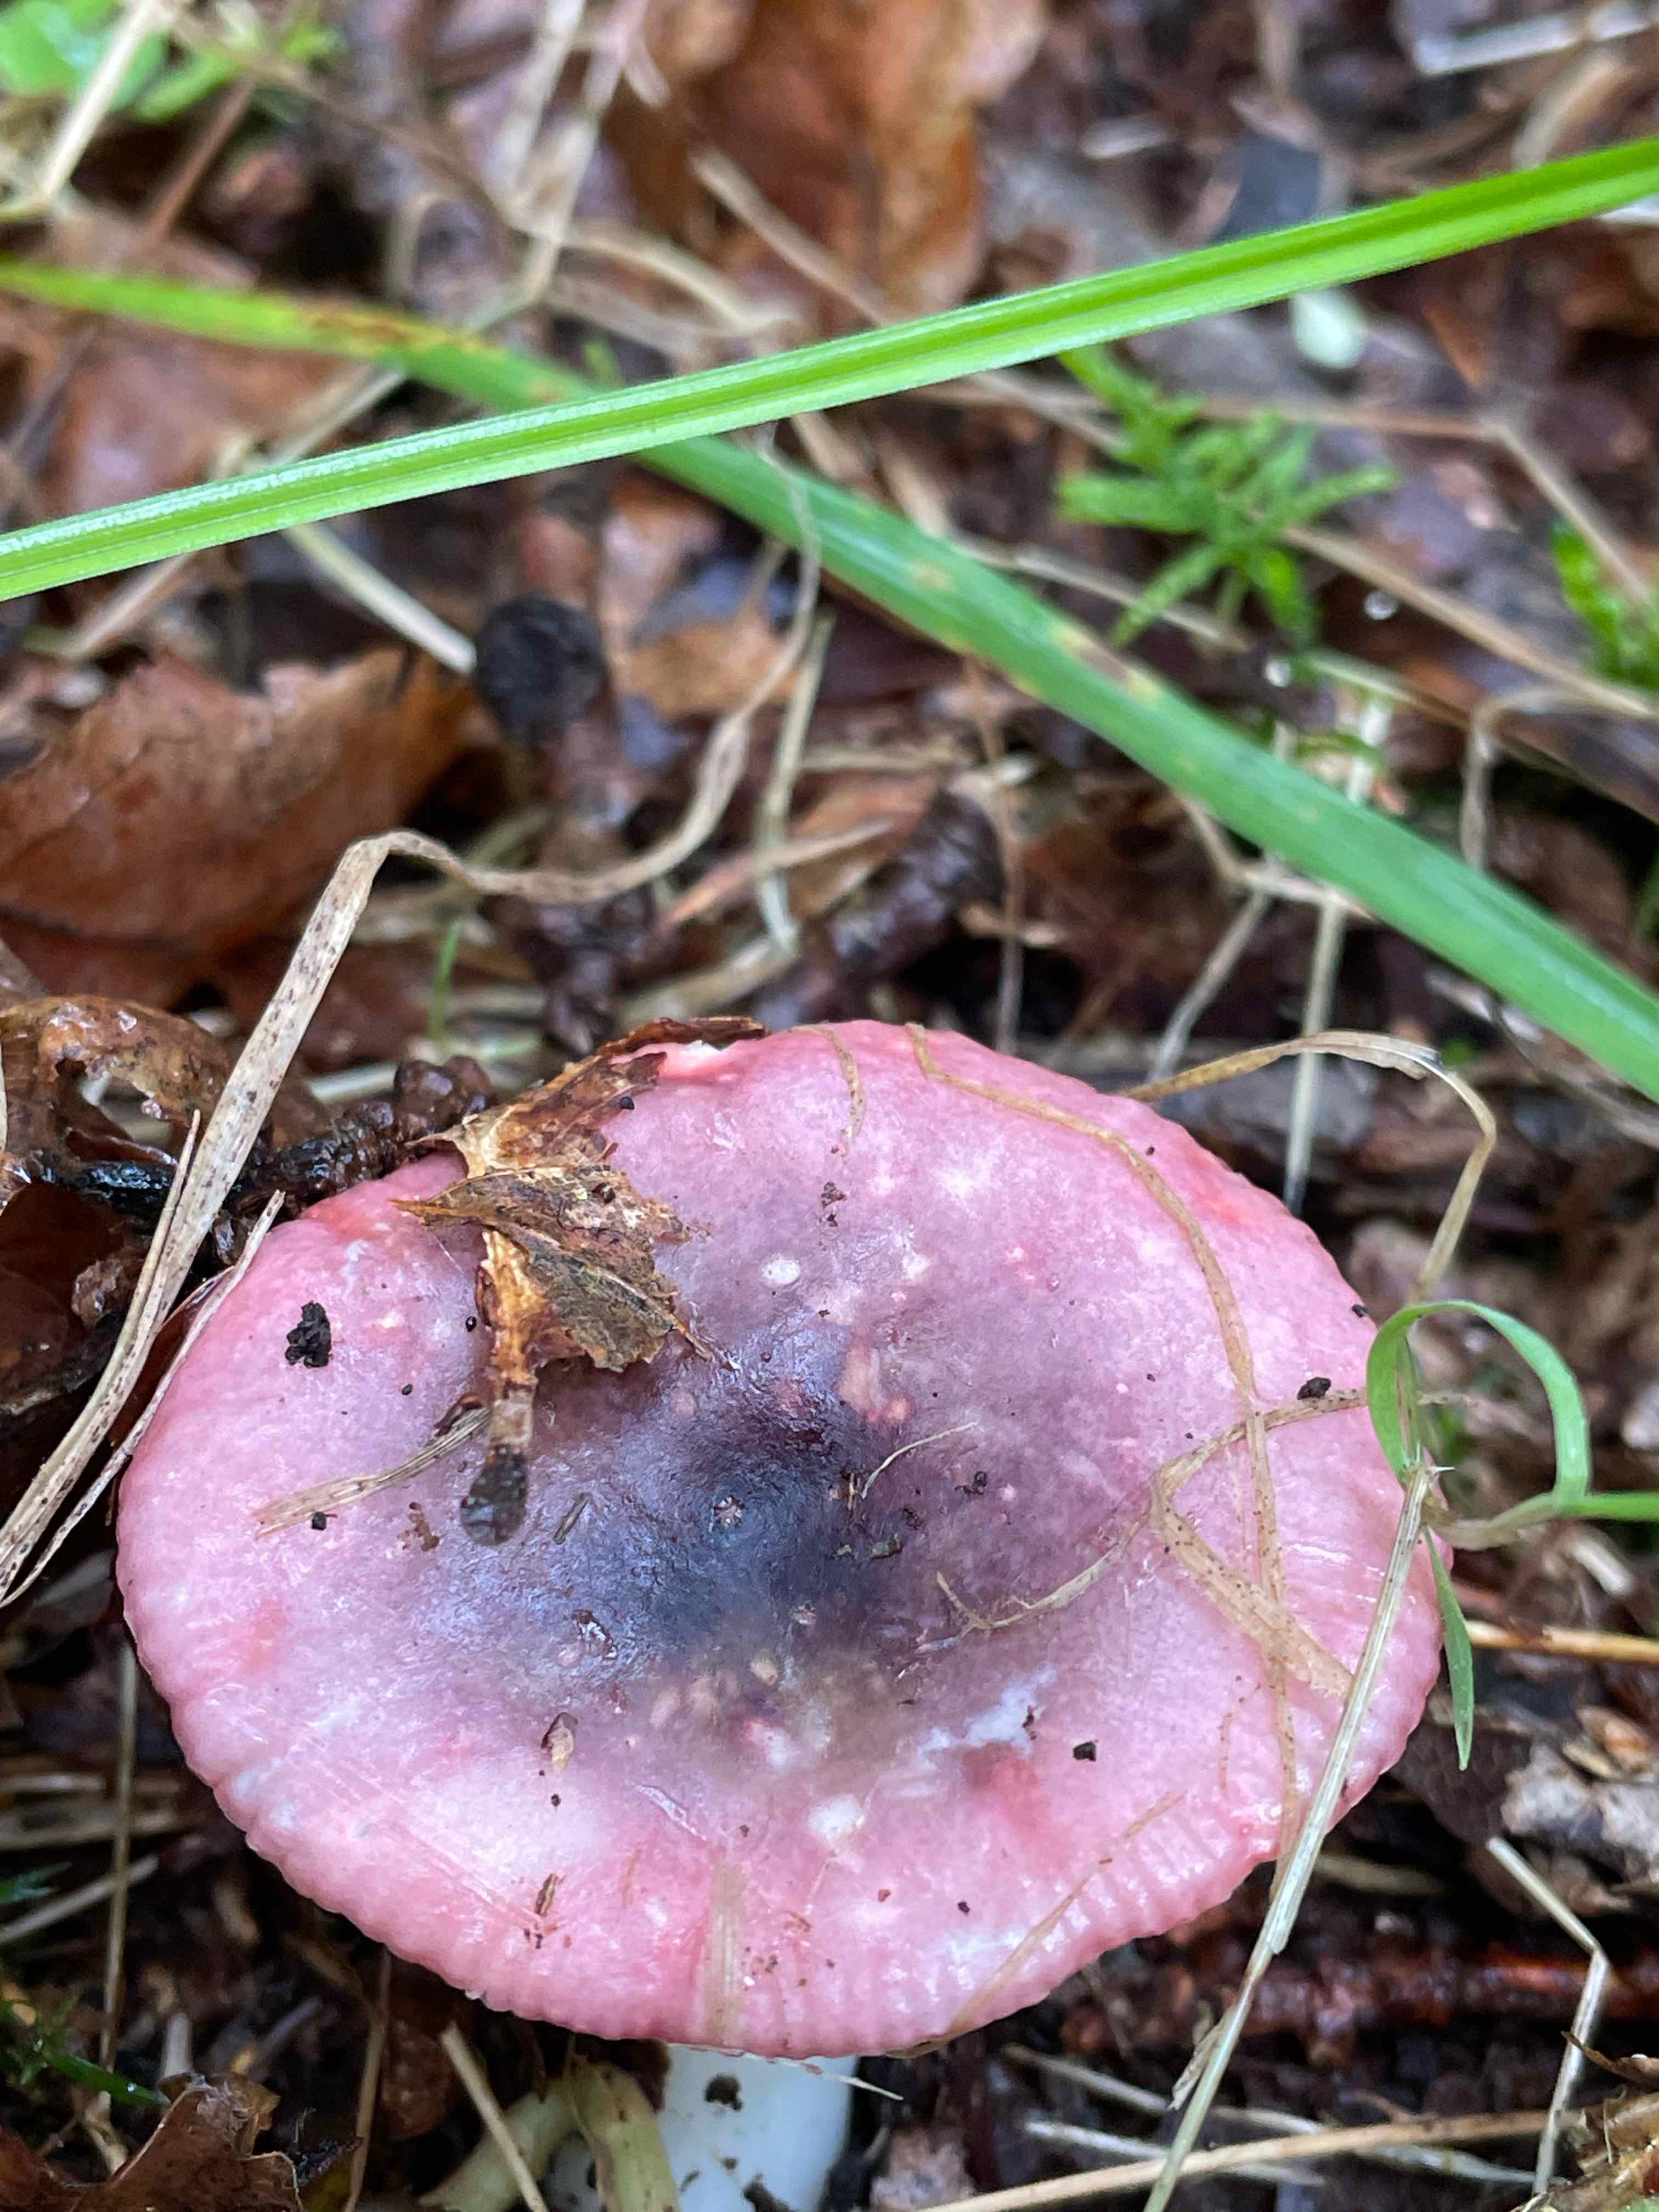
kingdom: Fungi
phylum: Basidiomycota
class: Agaricomycetes
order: Russulales
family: Russulaceae
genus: Russula
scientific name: Russula fragilis
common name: savbladet skørhat
